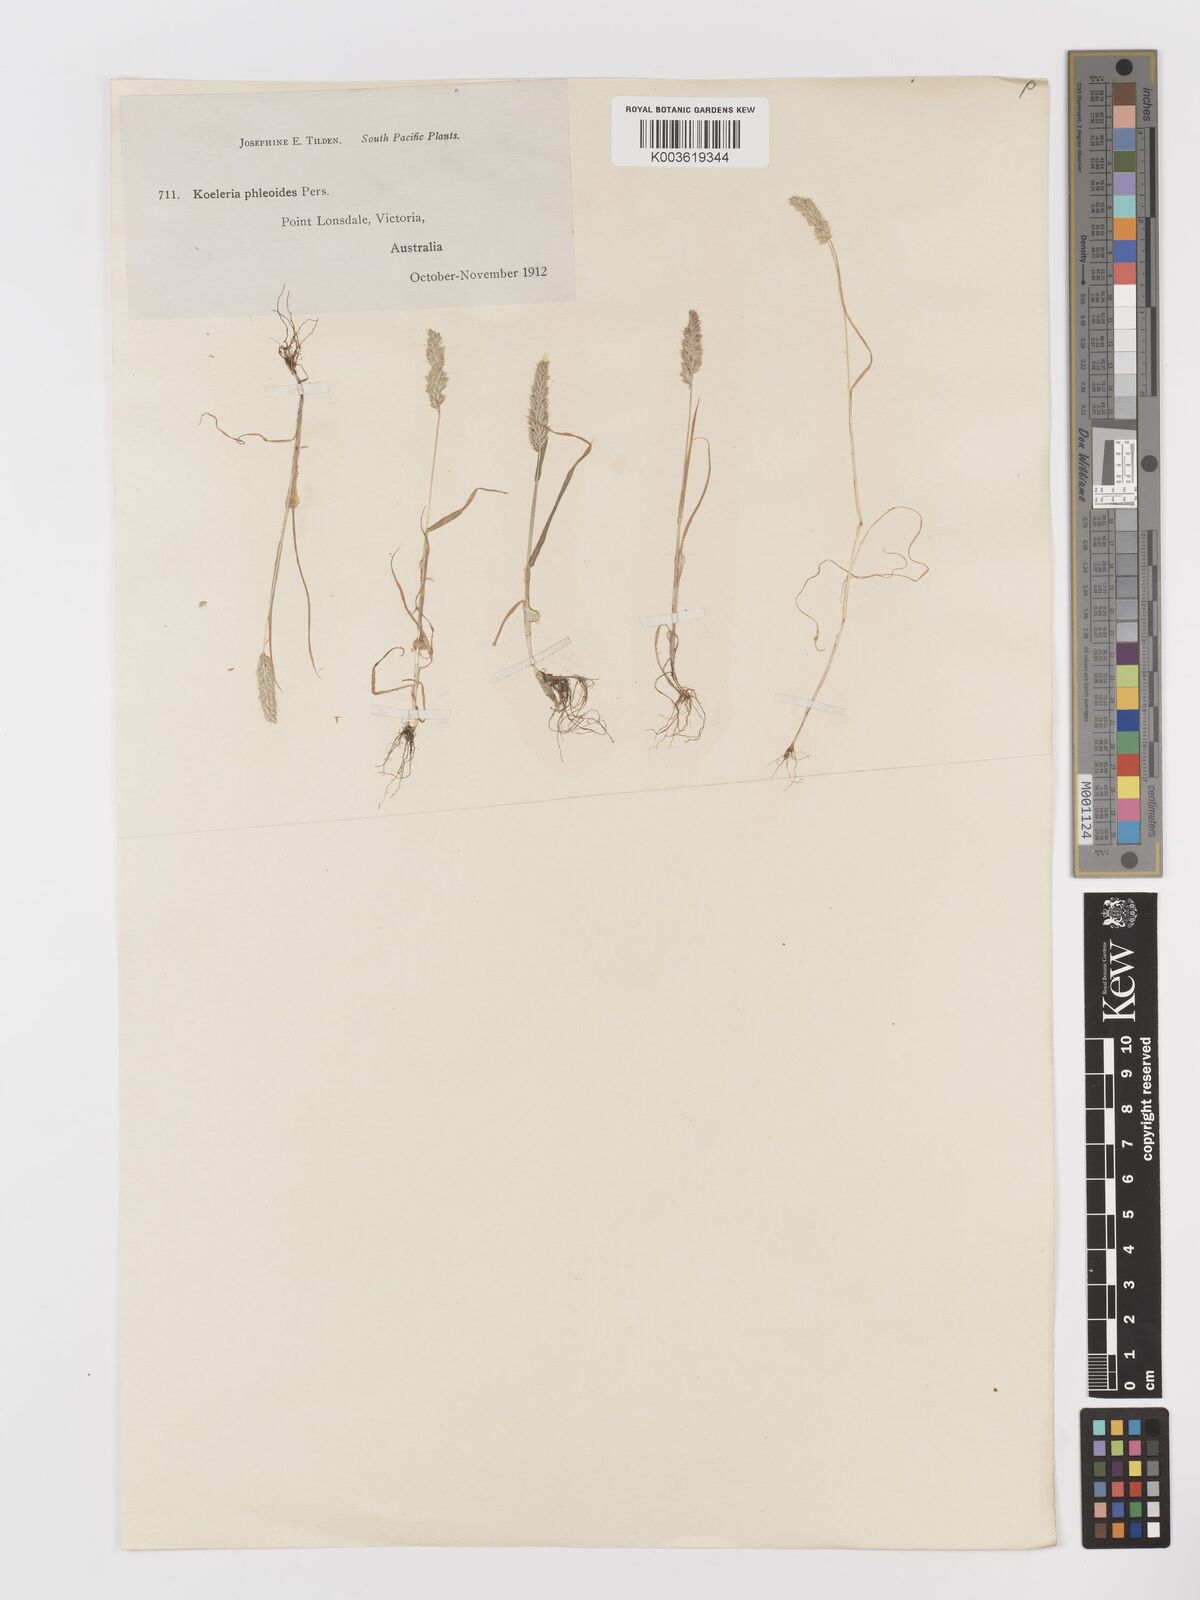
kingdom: Plantae
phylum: Tracheophyta
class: Liliopsida
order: Poales
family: Poaceae
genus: Rostraria
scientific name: Rostraria cristata
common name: Mediterranean hair-grass
